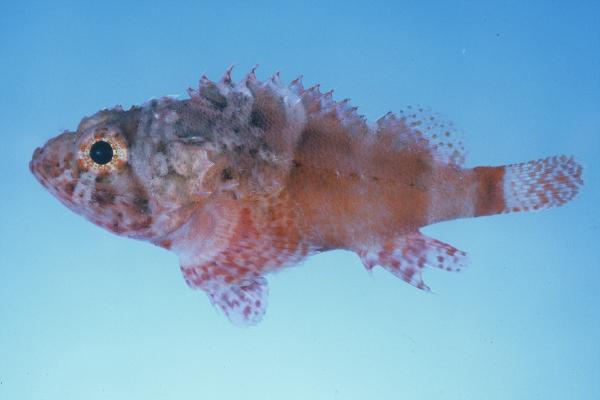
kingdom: Animalia
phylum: Chordata
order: Scorpaeniformes
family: Scorpaenidae
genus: Scorpaenodes
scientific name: Scorpaenodes parvipinnis
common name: Coral scorpionfish
